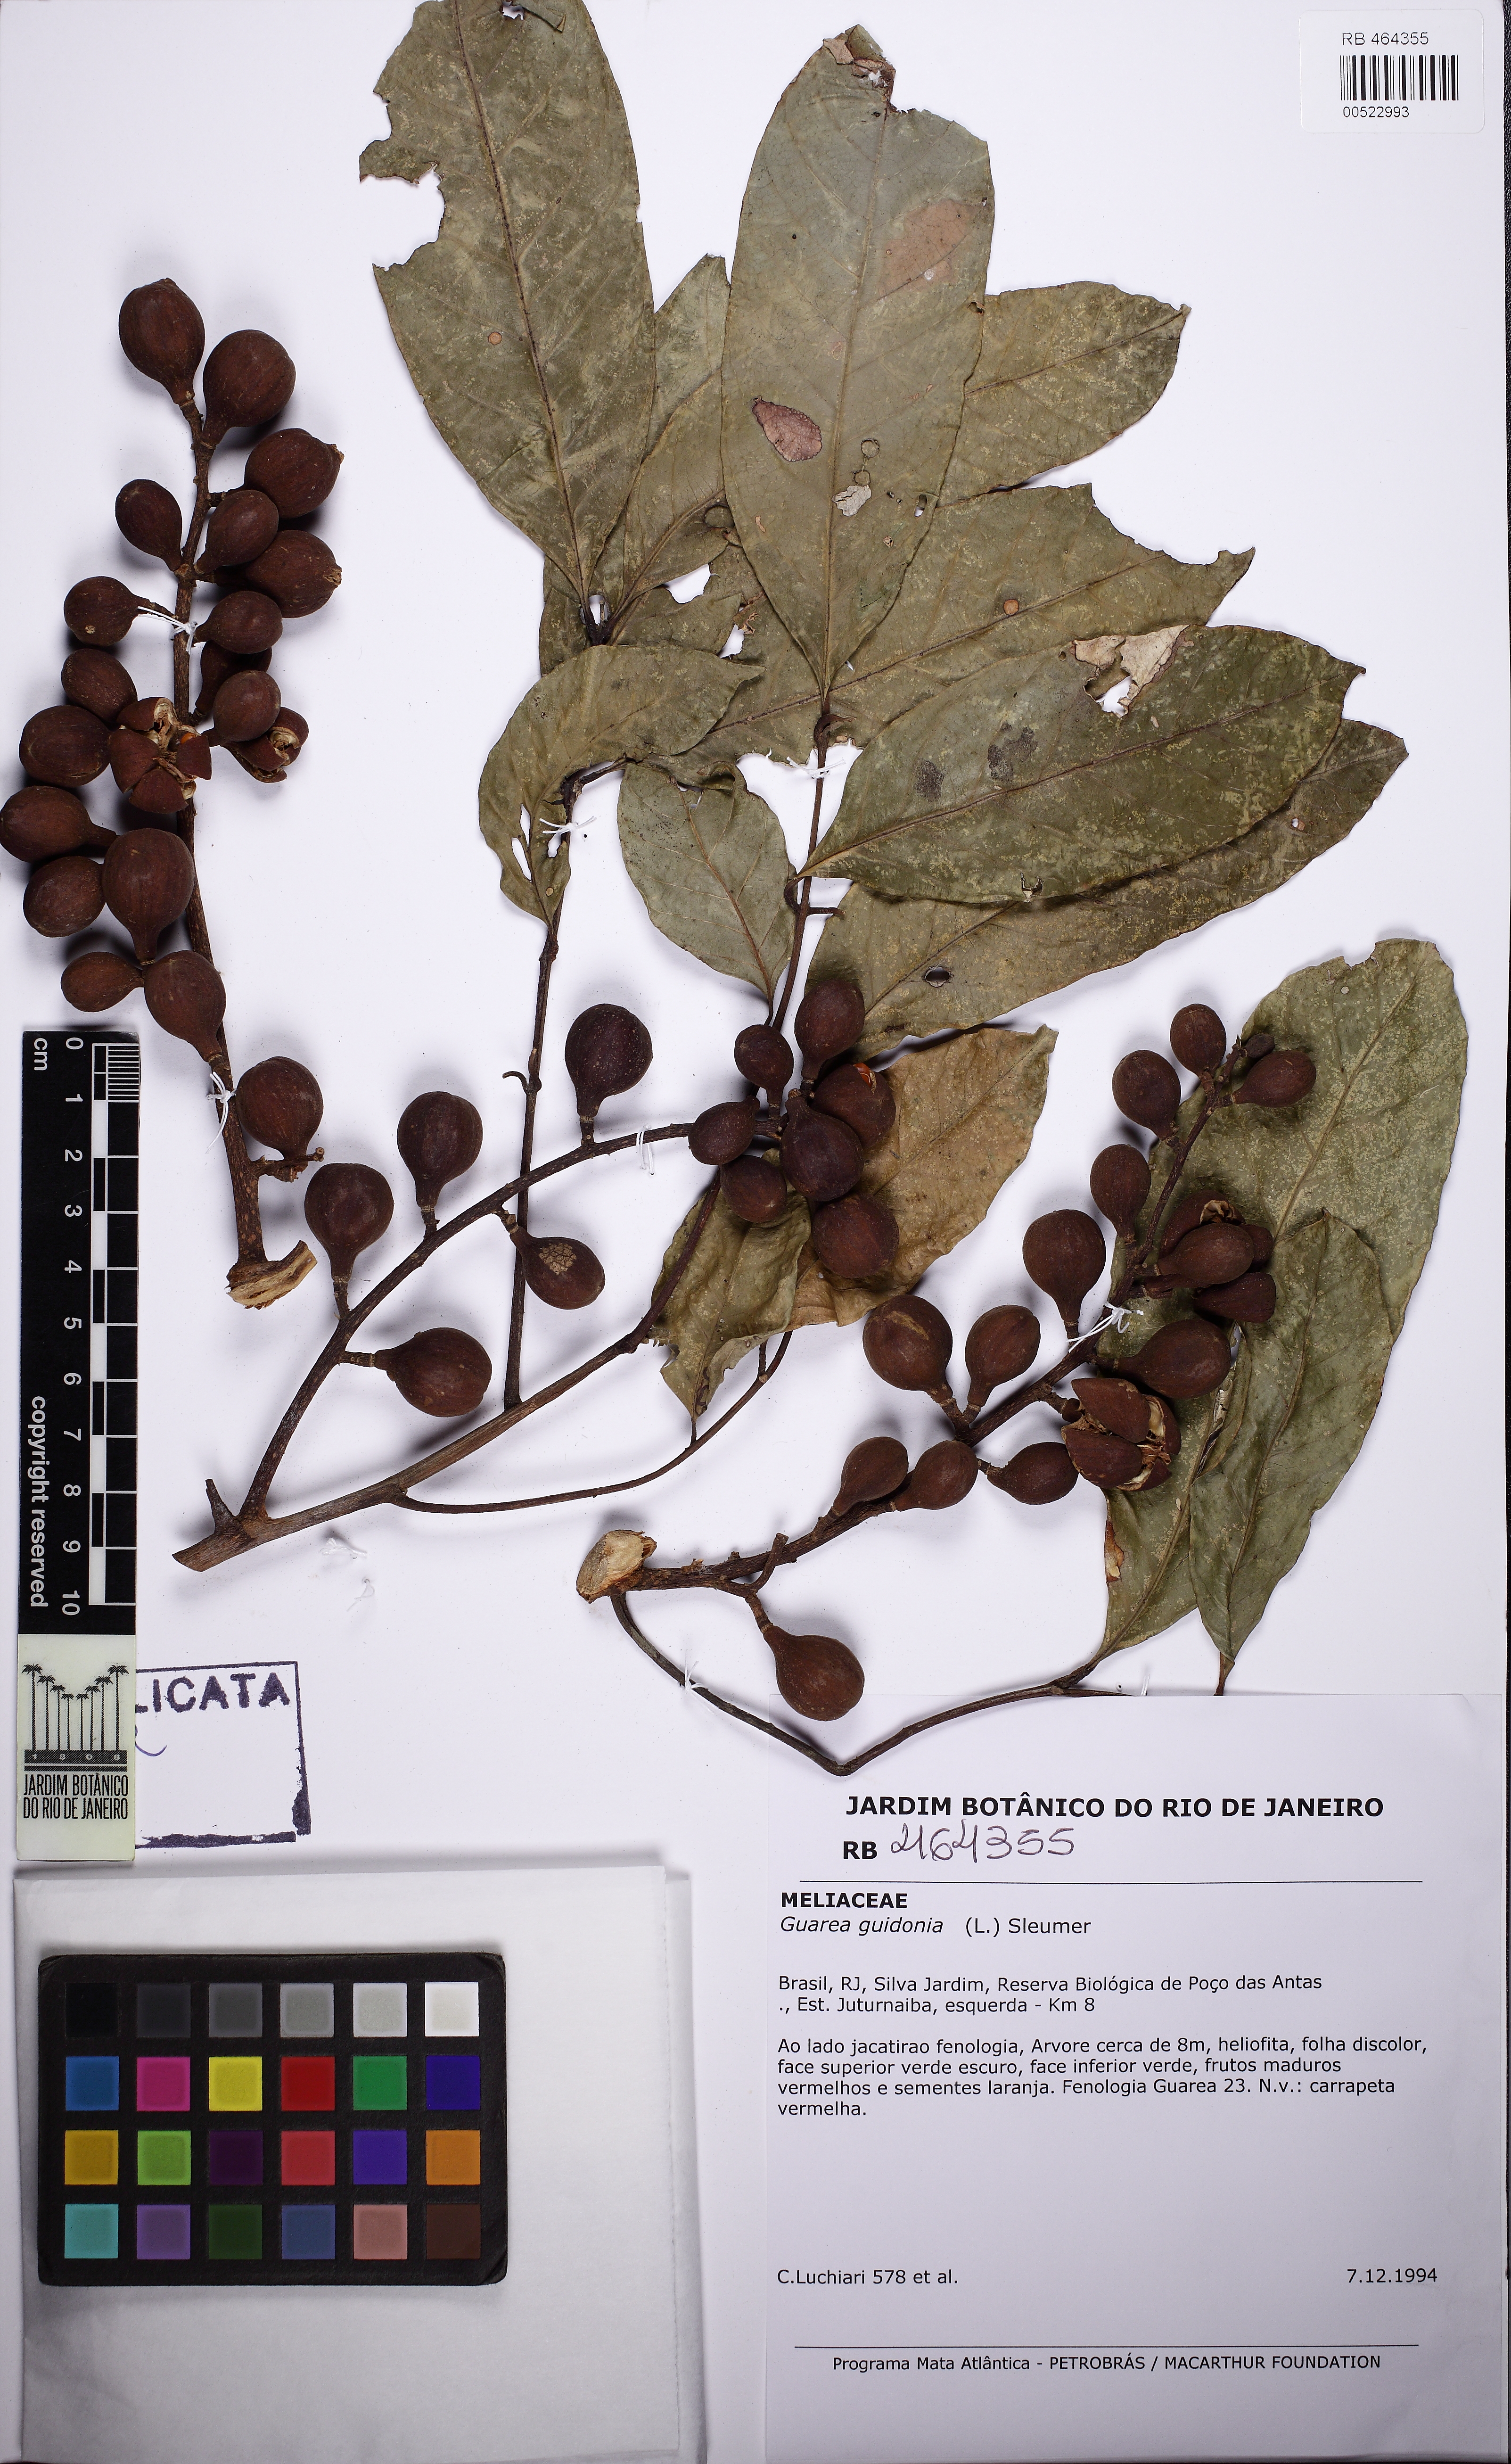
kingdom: Plantae
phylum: Tracheophyta
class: Magnoliopsida
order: Sapindales
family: Meliaceae
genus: Guarea
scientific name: Guarea guidonia
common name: American muskwood
